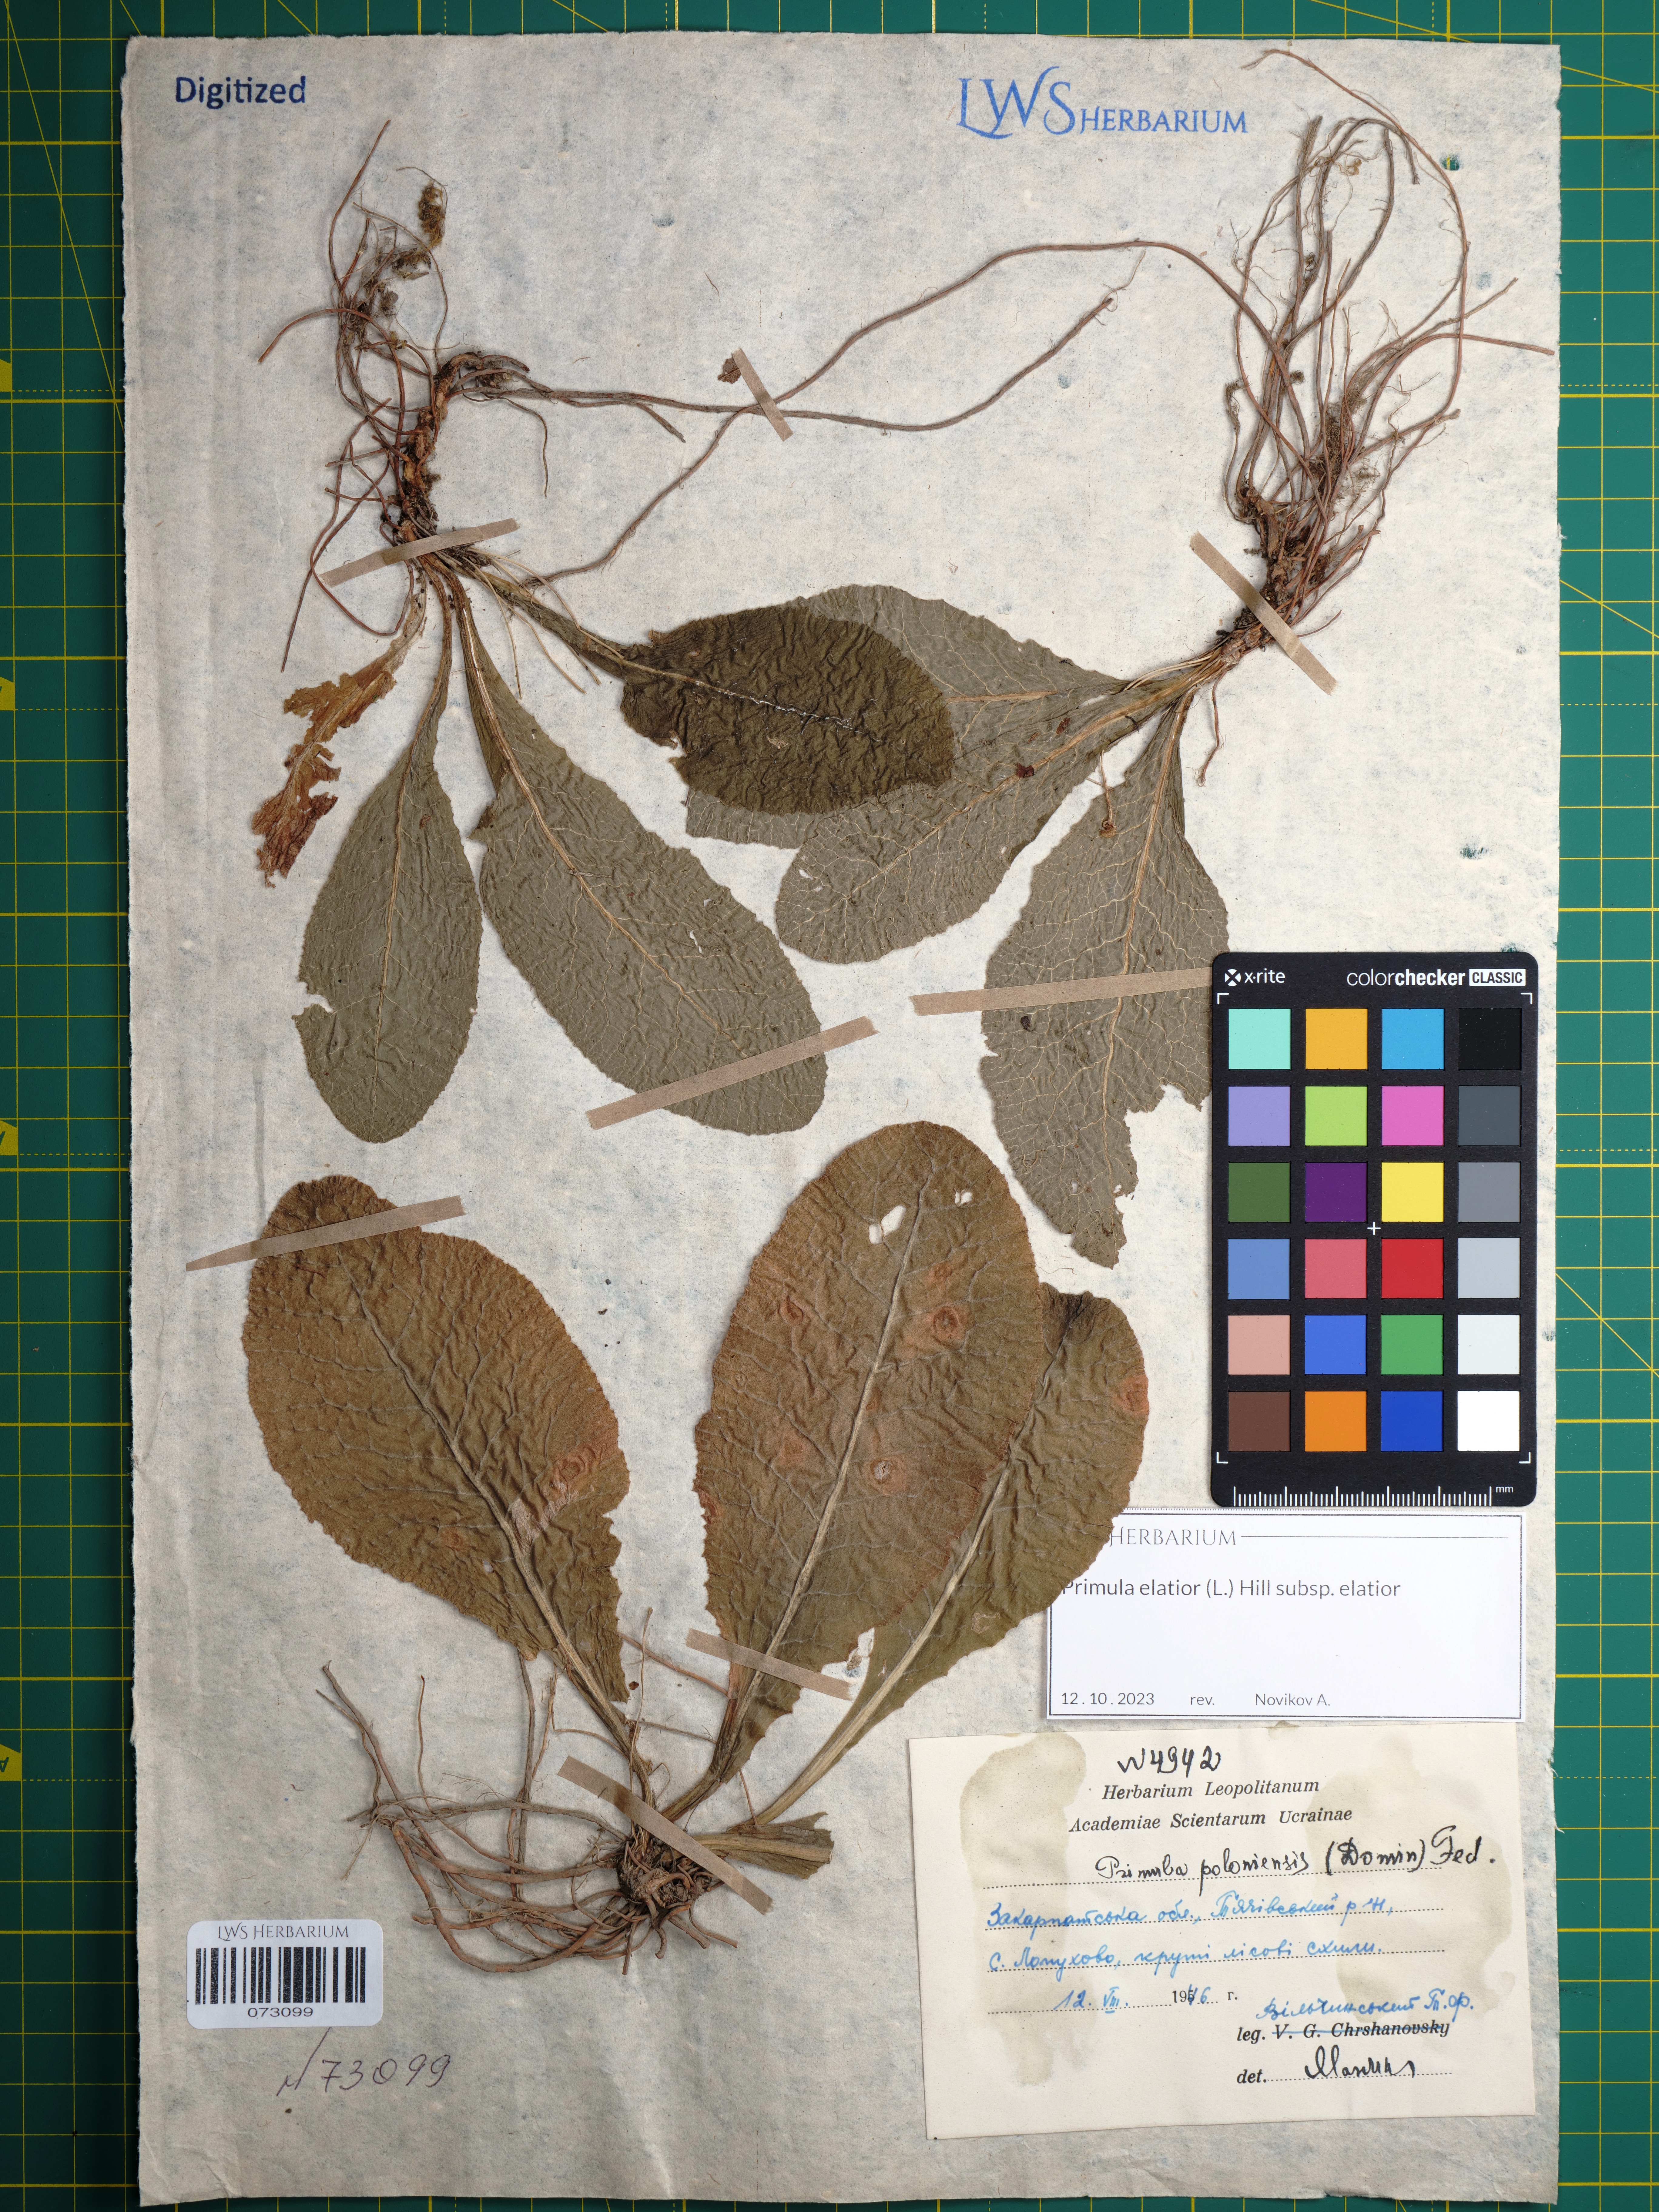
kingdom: Plantae
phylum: Tracheophyta
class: Magnoliopsida
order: Ericales
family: Primulaceae
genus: Primula
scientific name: Primula elatior
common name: Oxlip
